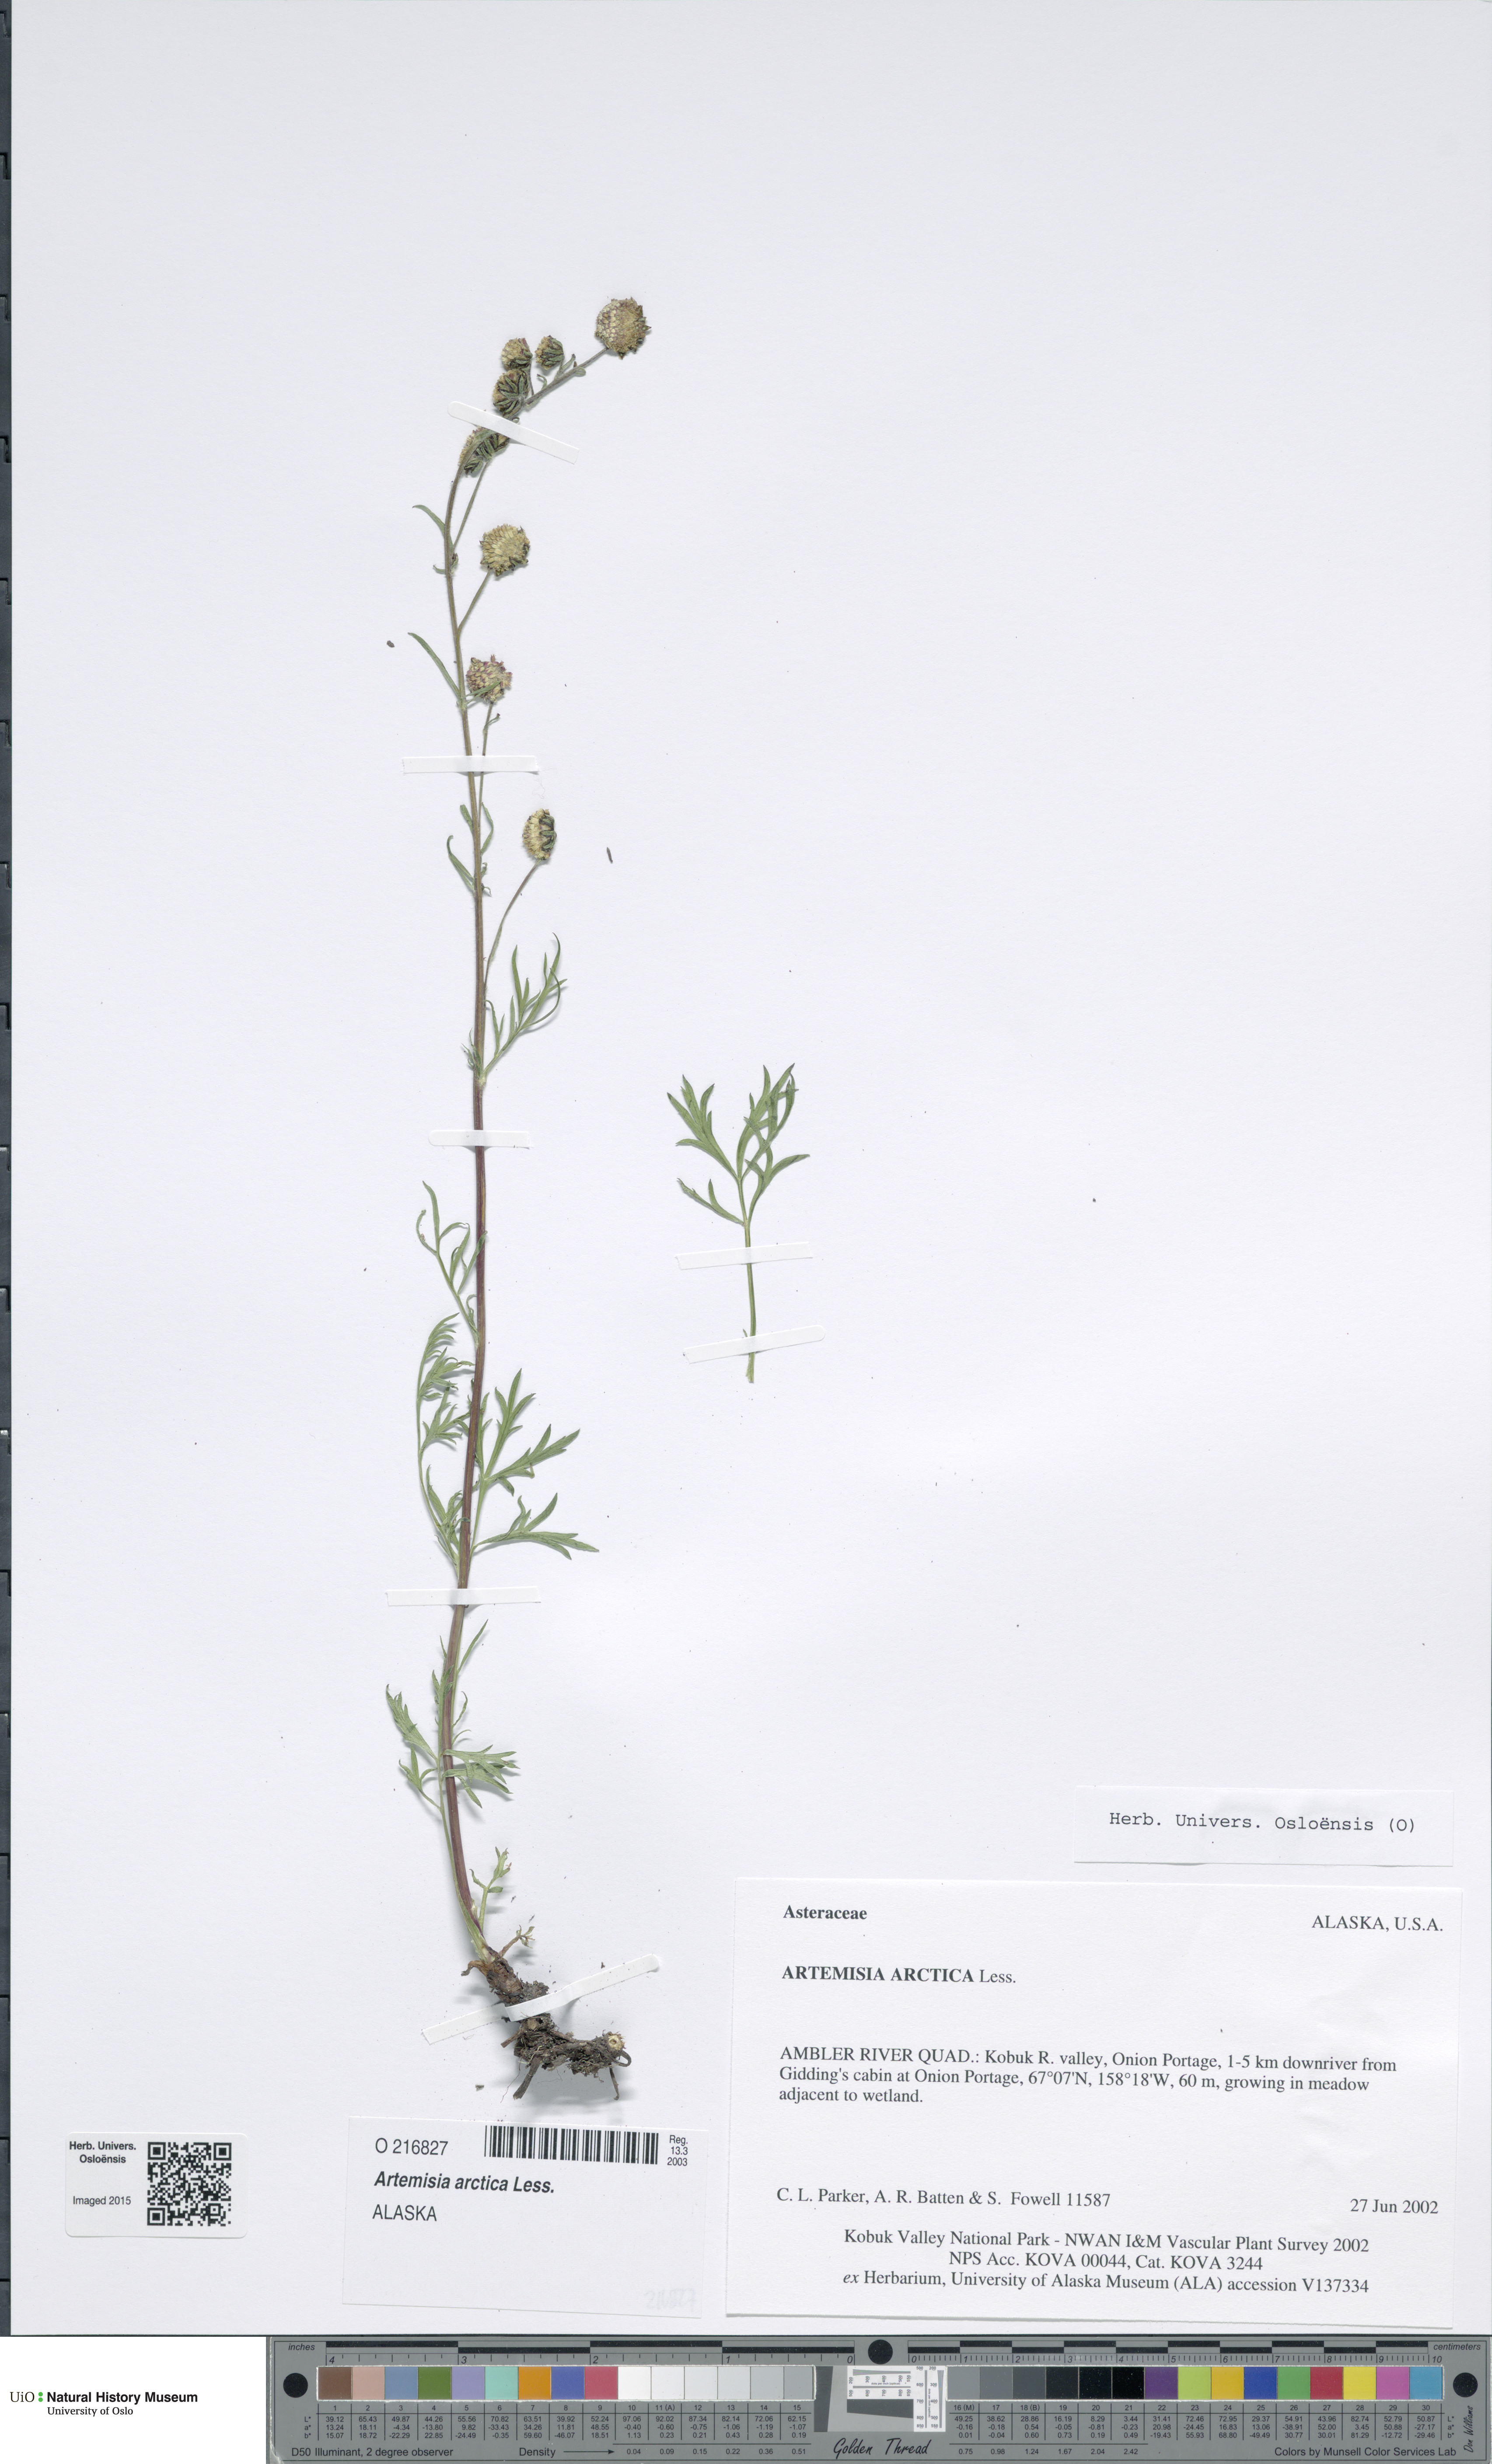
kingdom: Plantae
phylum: Tracheophyta
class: Magnoliopsida
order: Asterales
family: Asteraceae
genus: Artemisia
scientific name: Artemisia norvegica
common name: Norwegian mugwort
